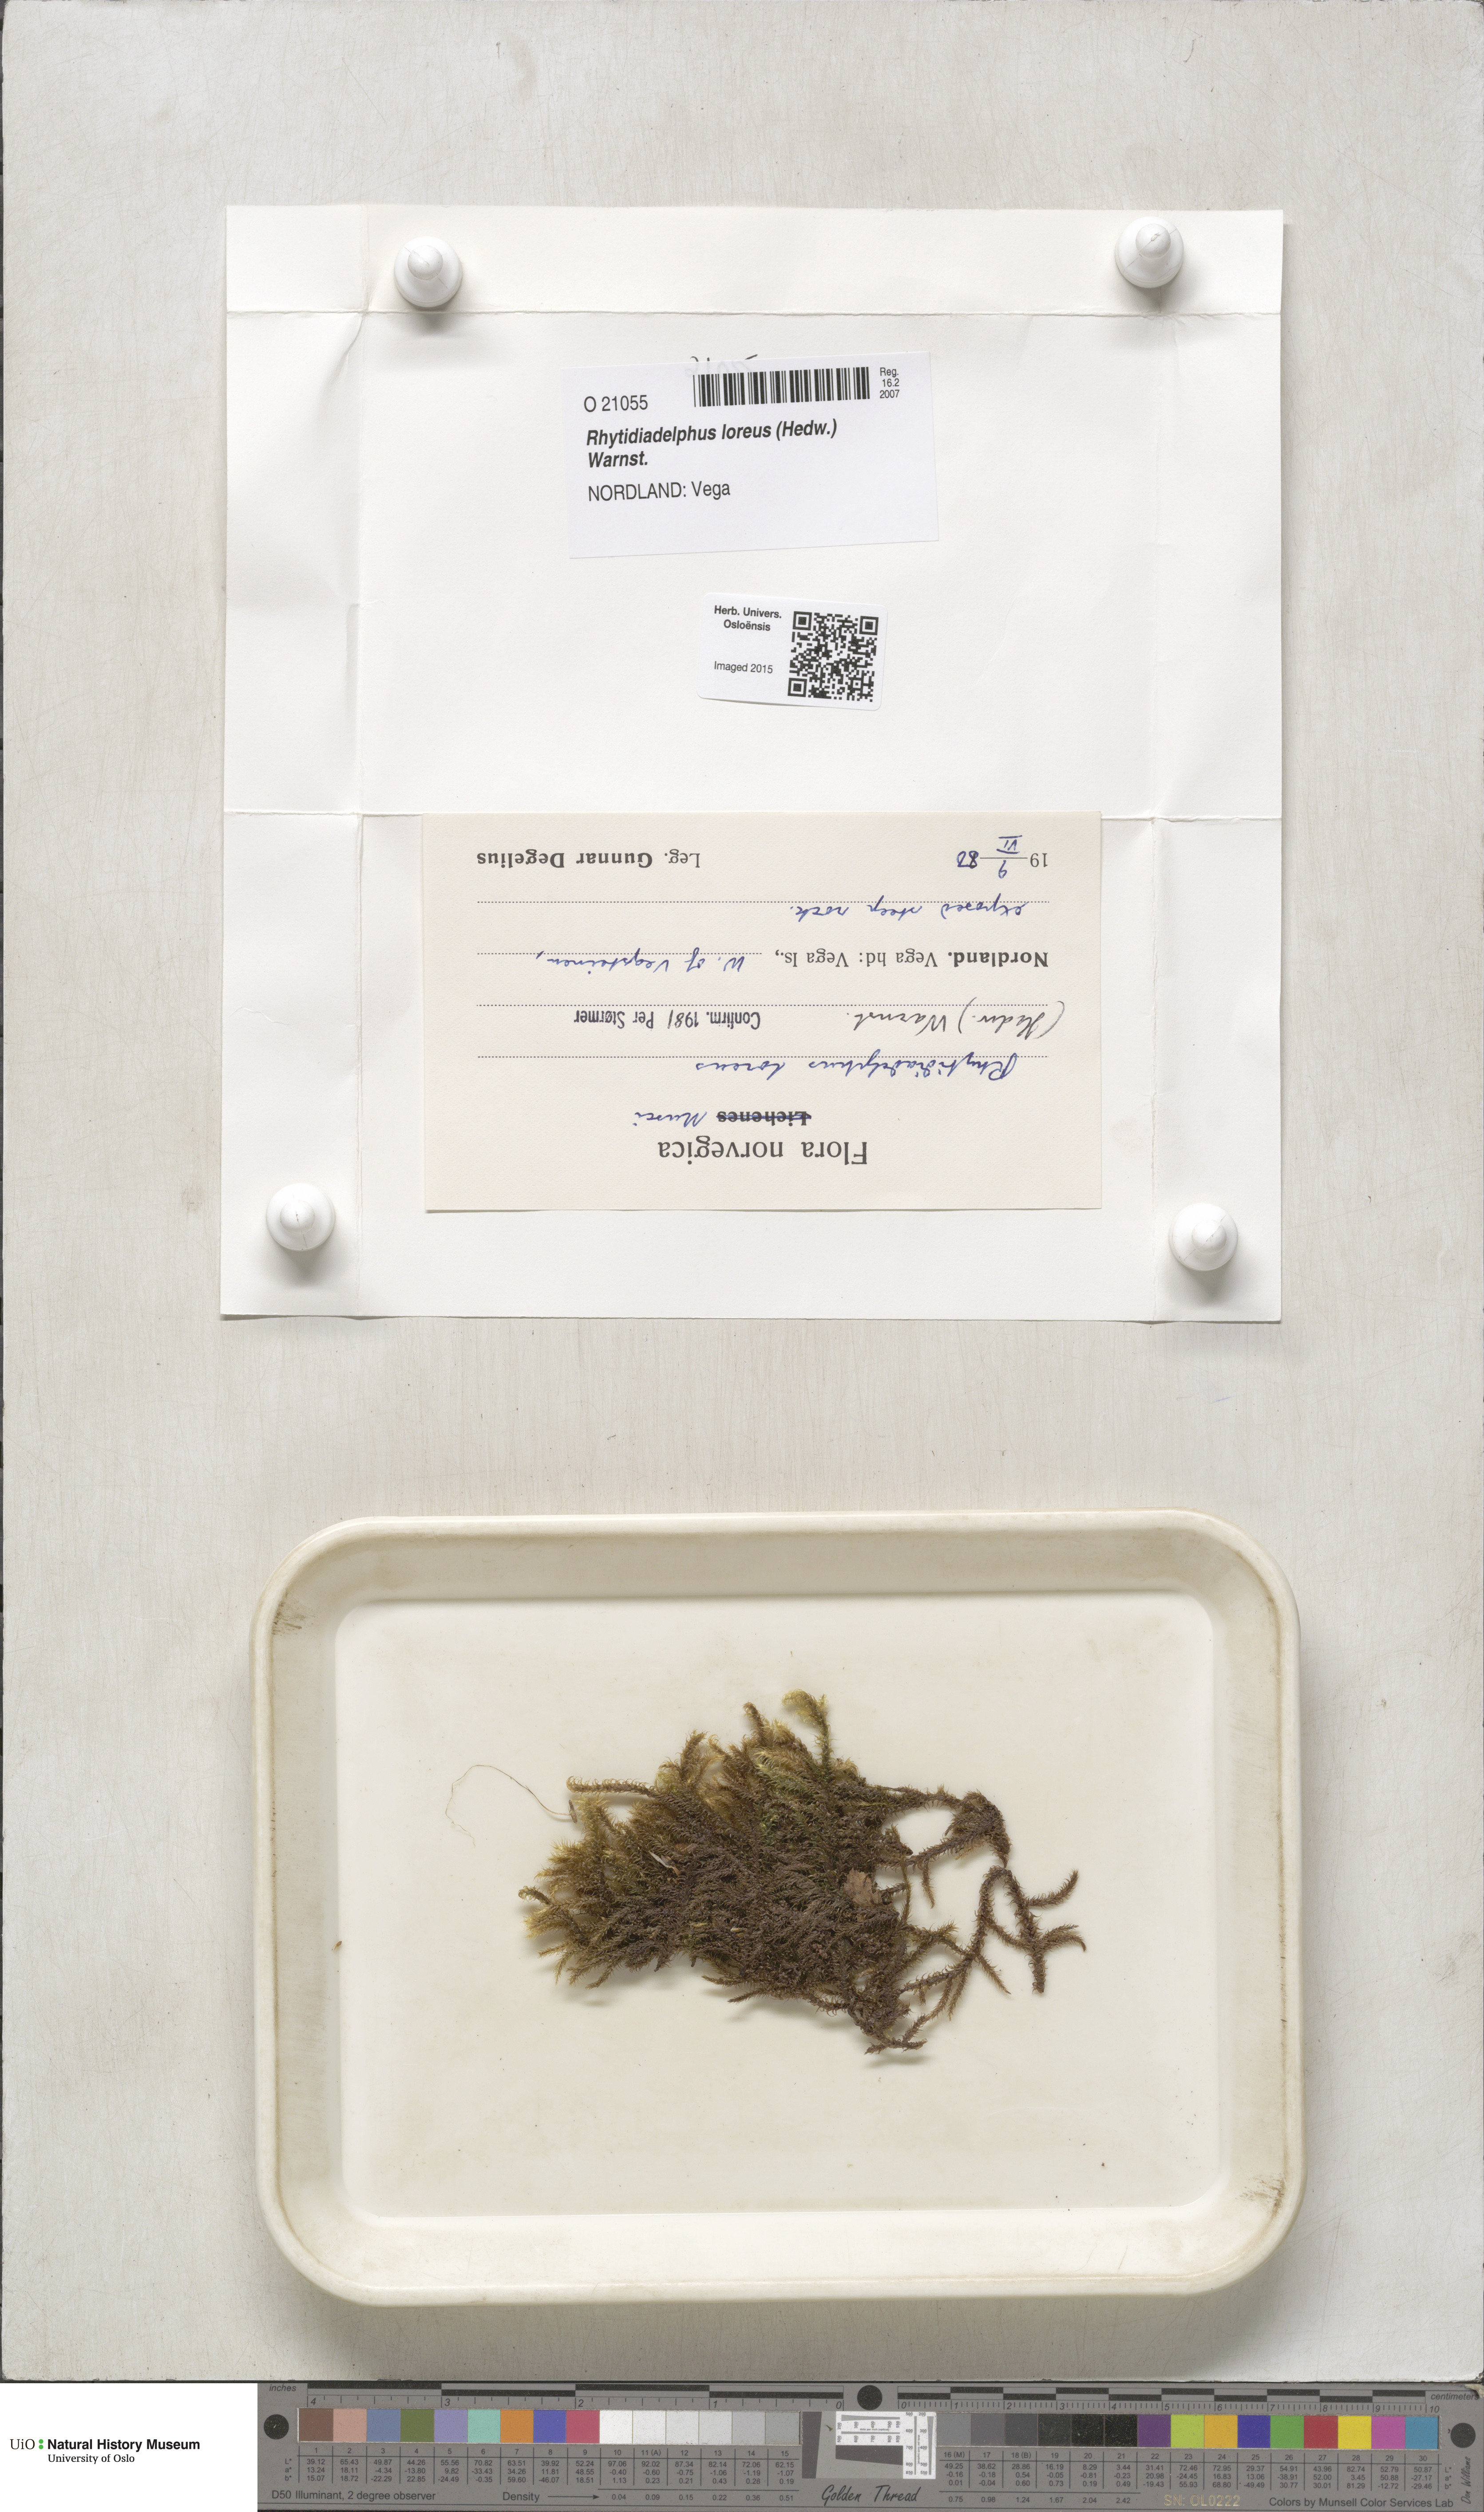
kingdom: Plantae
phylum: Bryophyta
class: Bryopsida
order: Hypnales
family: Hylocomiaceae
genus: Rhytidiadelphus
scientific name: Rhytidiadelphus loreus
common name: Lanky moss
